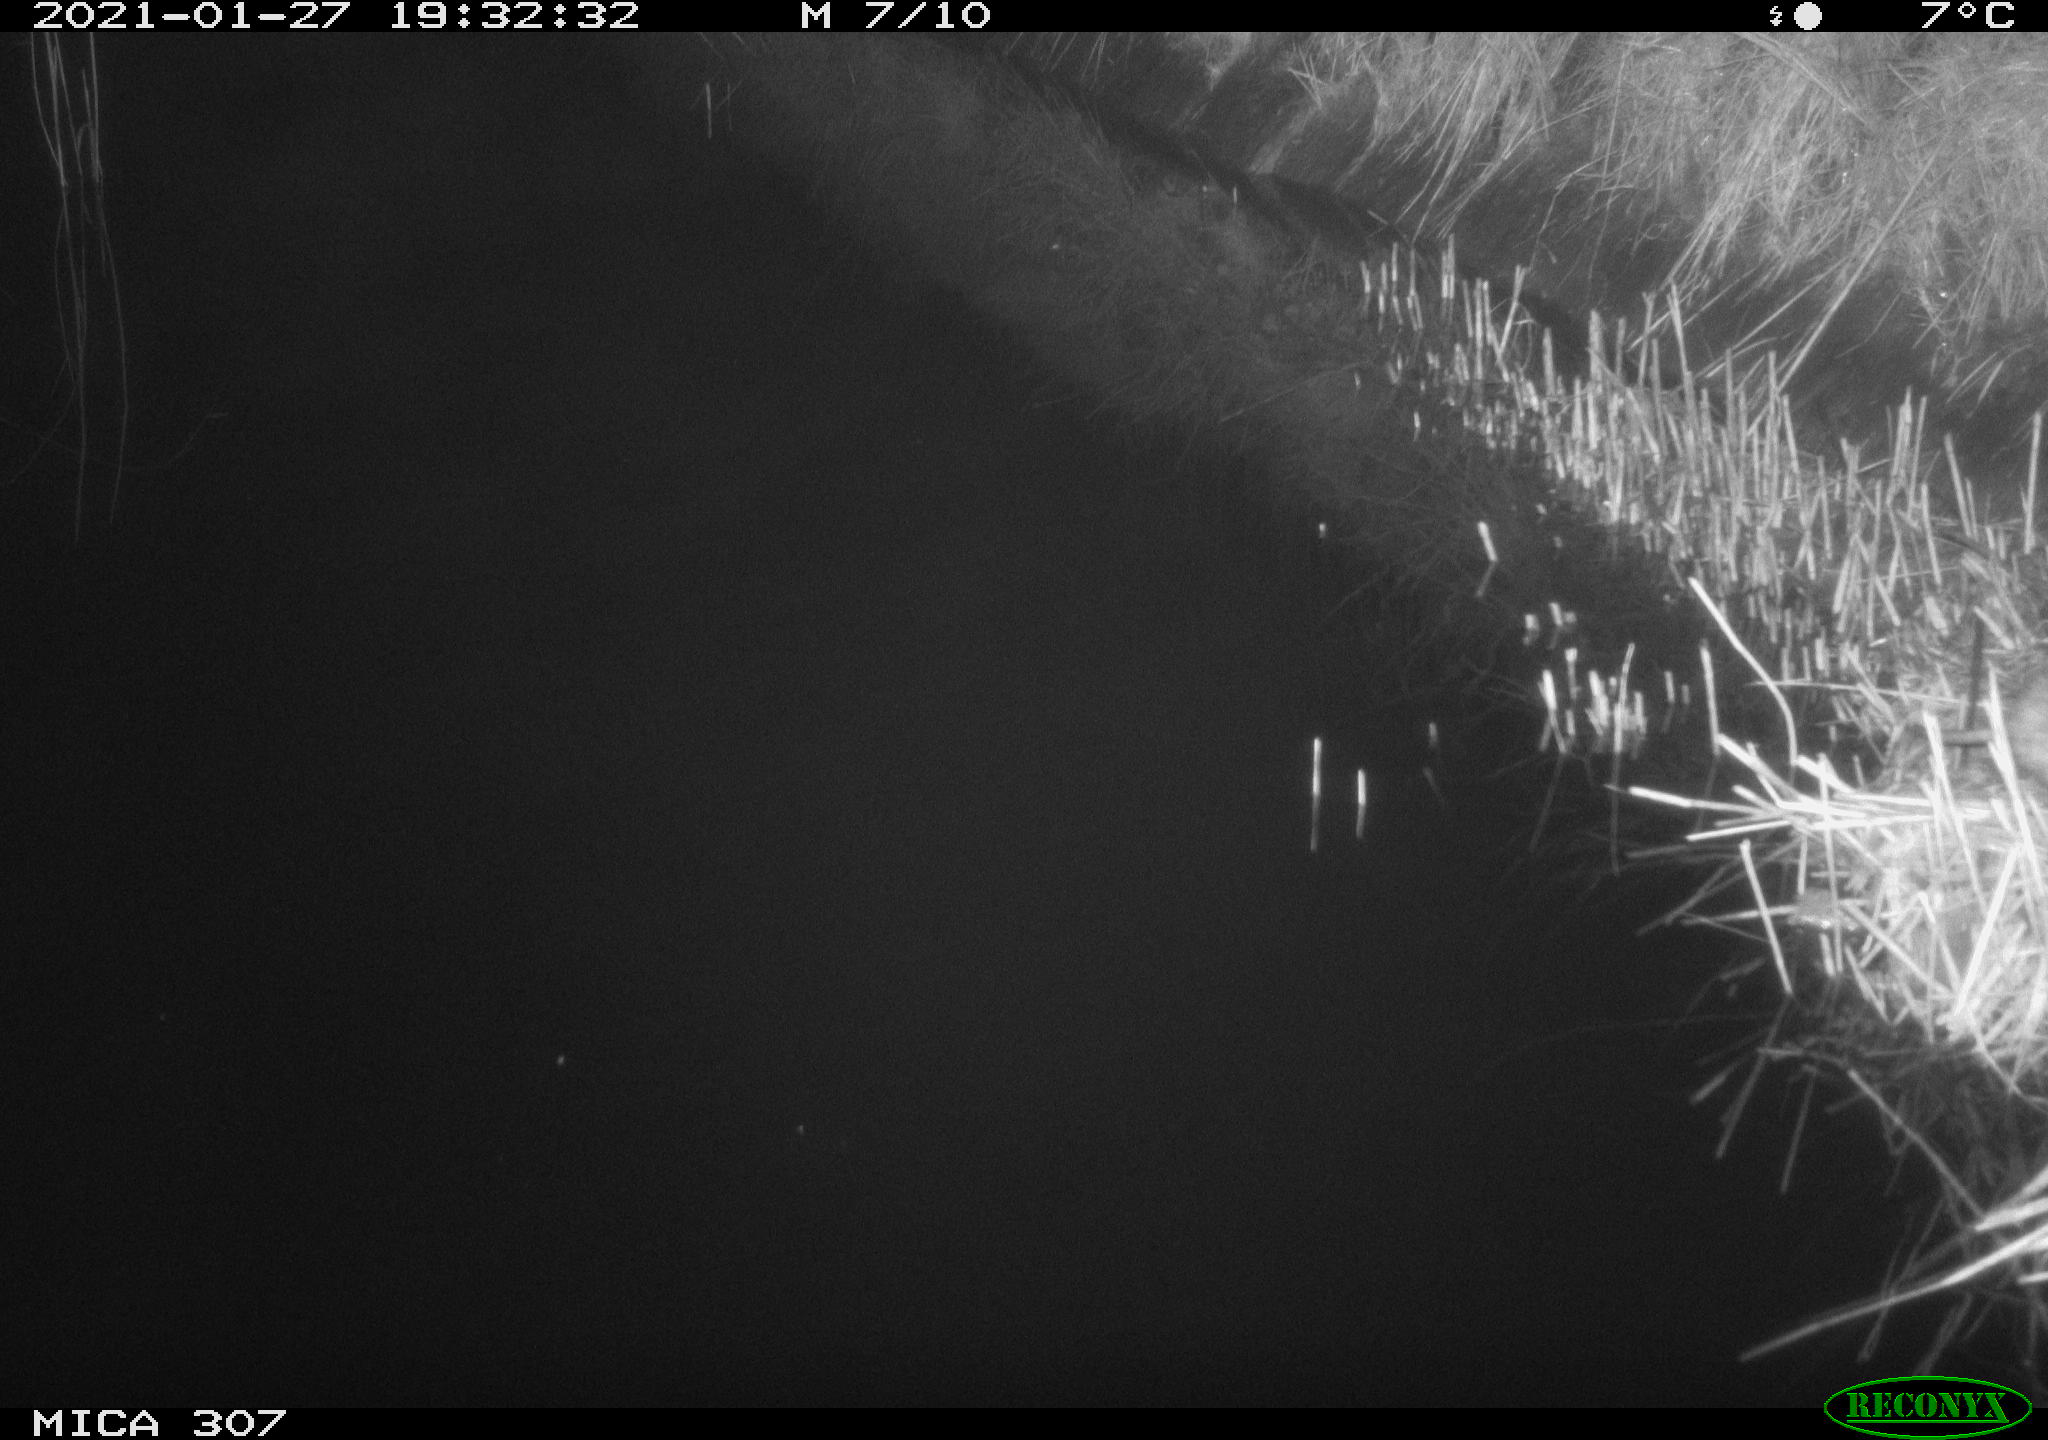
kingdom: Animalia
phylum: Chordata
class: Mammalia
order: Rodentia
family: Muridae
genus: Rattus
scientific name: Rattus norvegicus
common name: Brown rat
